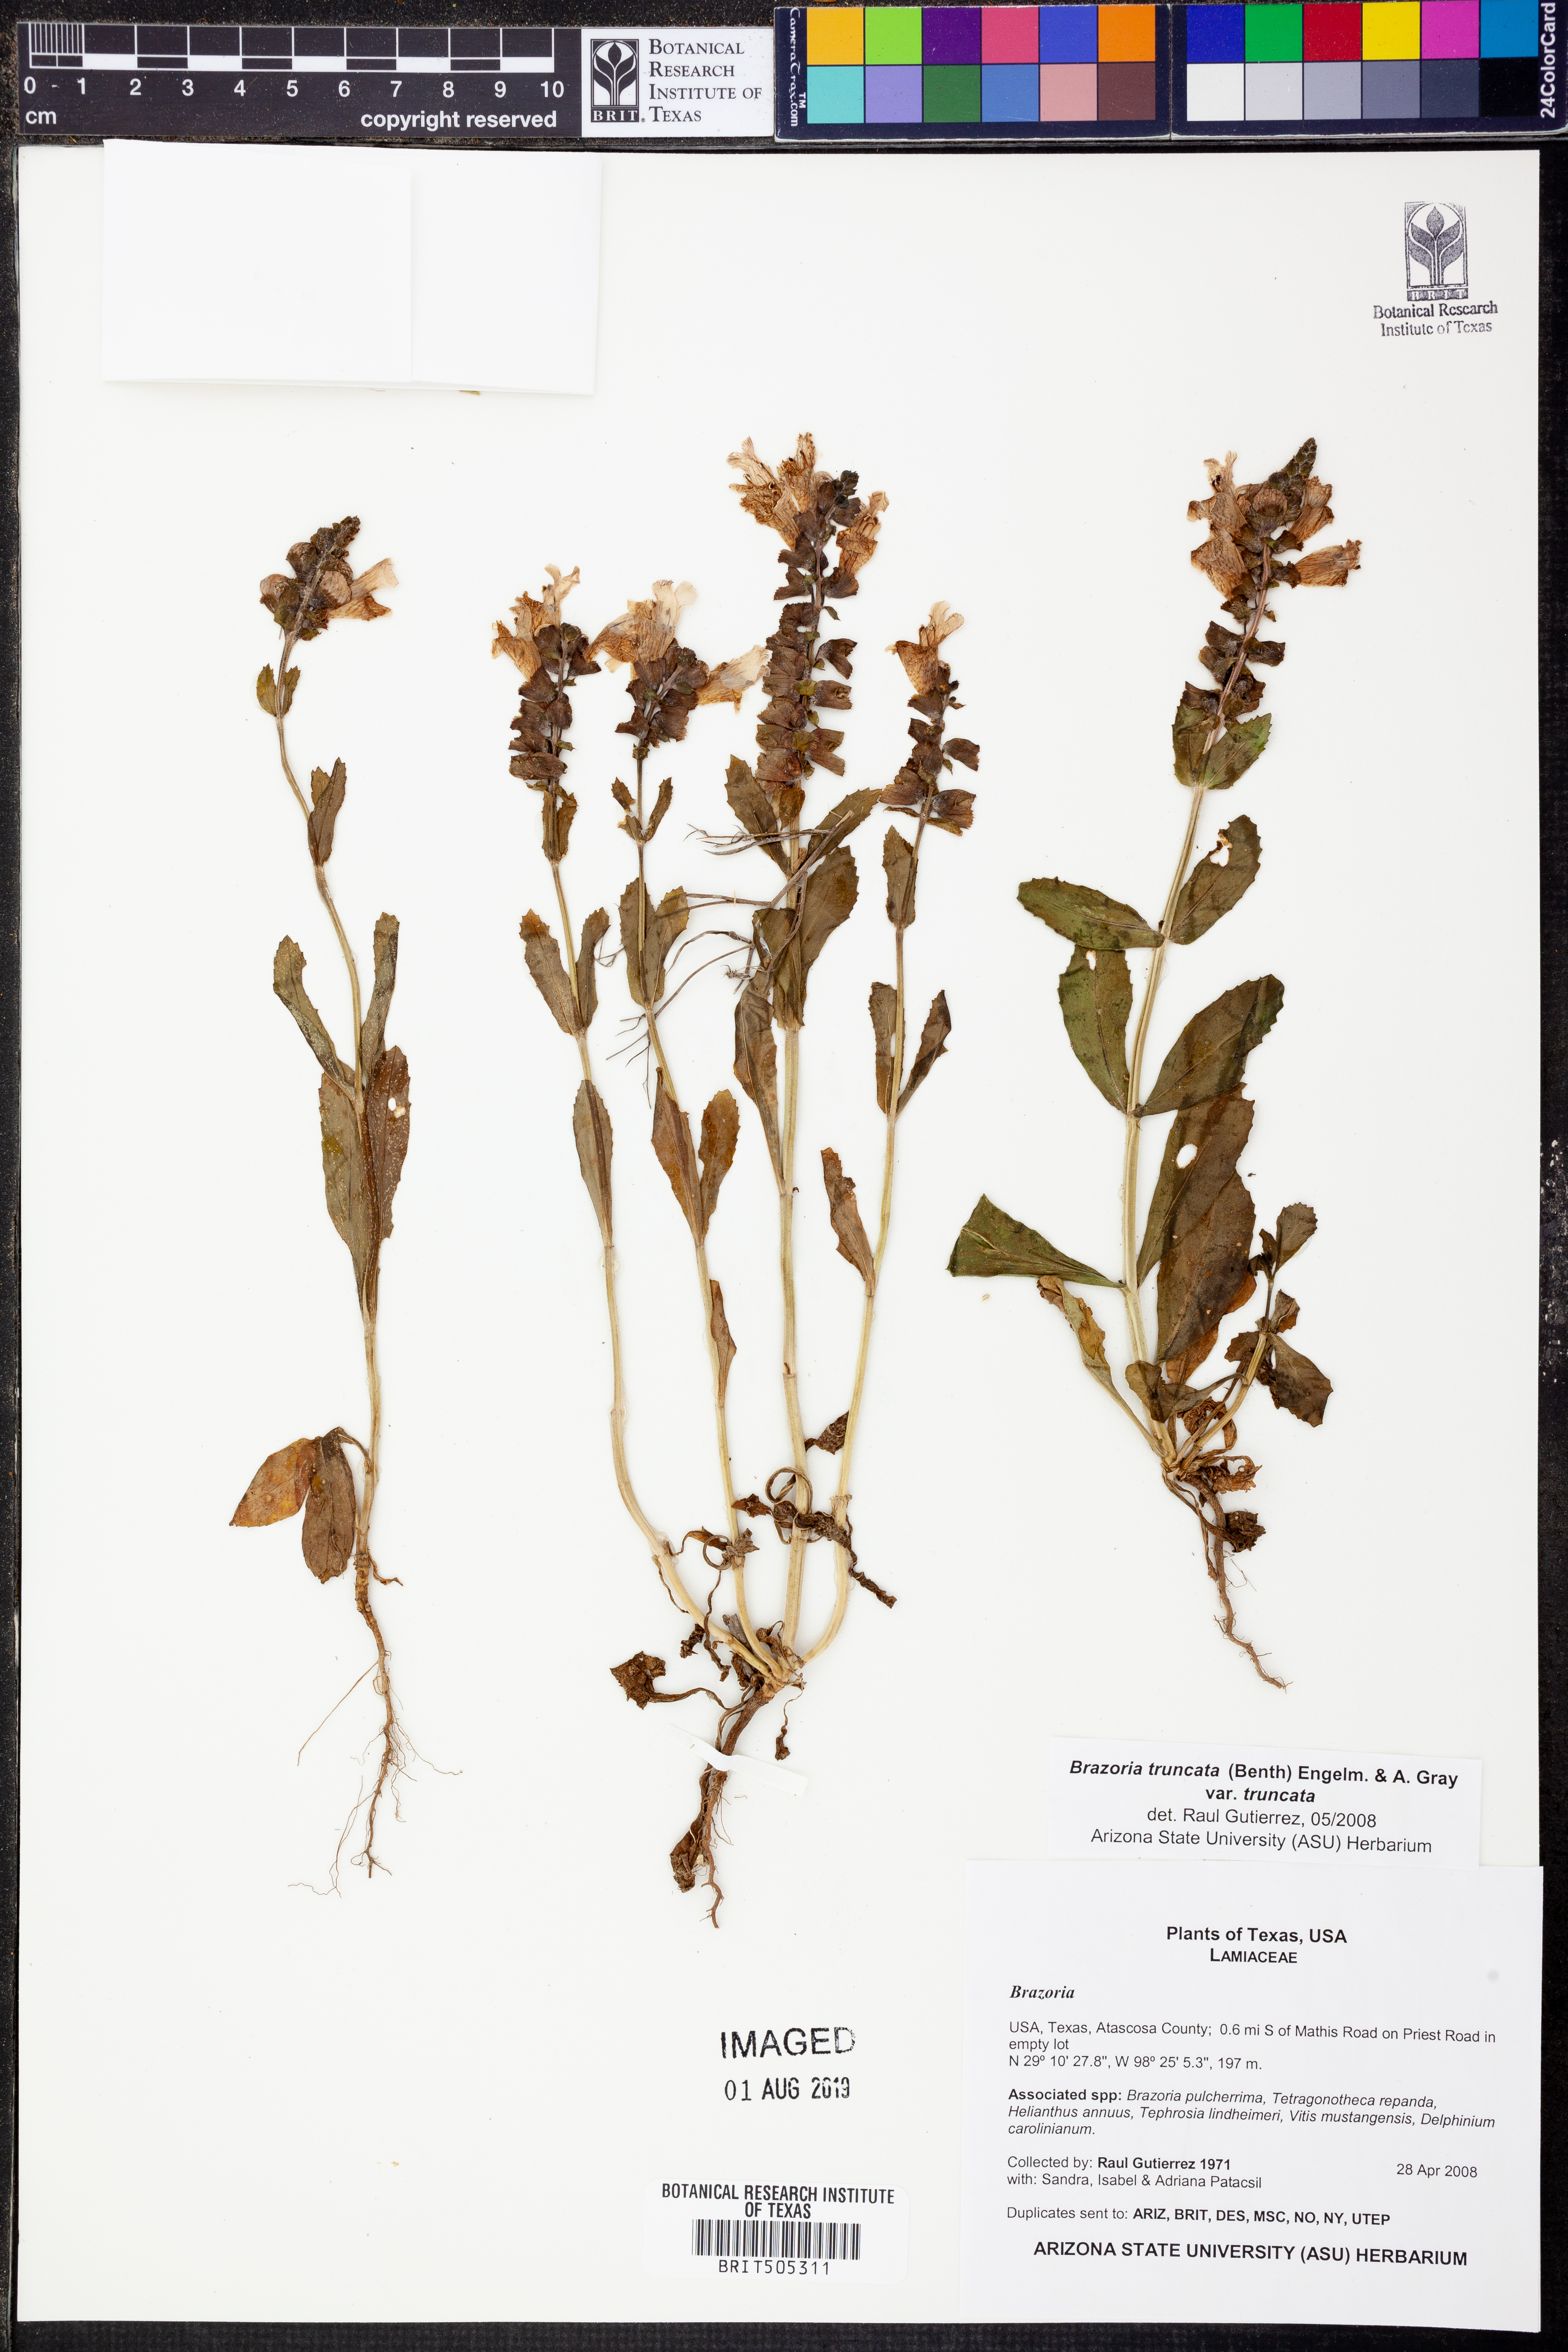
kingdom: Plantae
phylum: Tracheophyta
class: Magnoliopsida
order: Lamiales
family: Lamiaceae
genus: Brazoria
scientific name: Brazoria truncata
